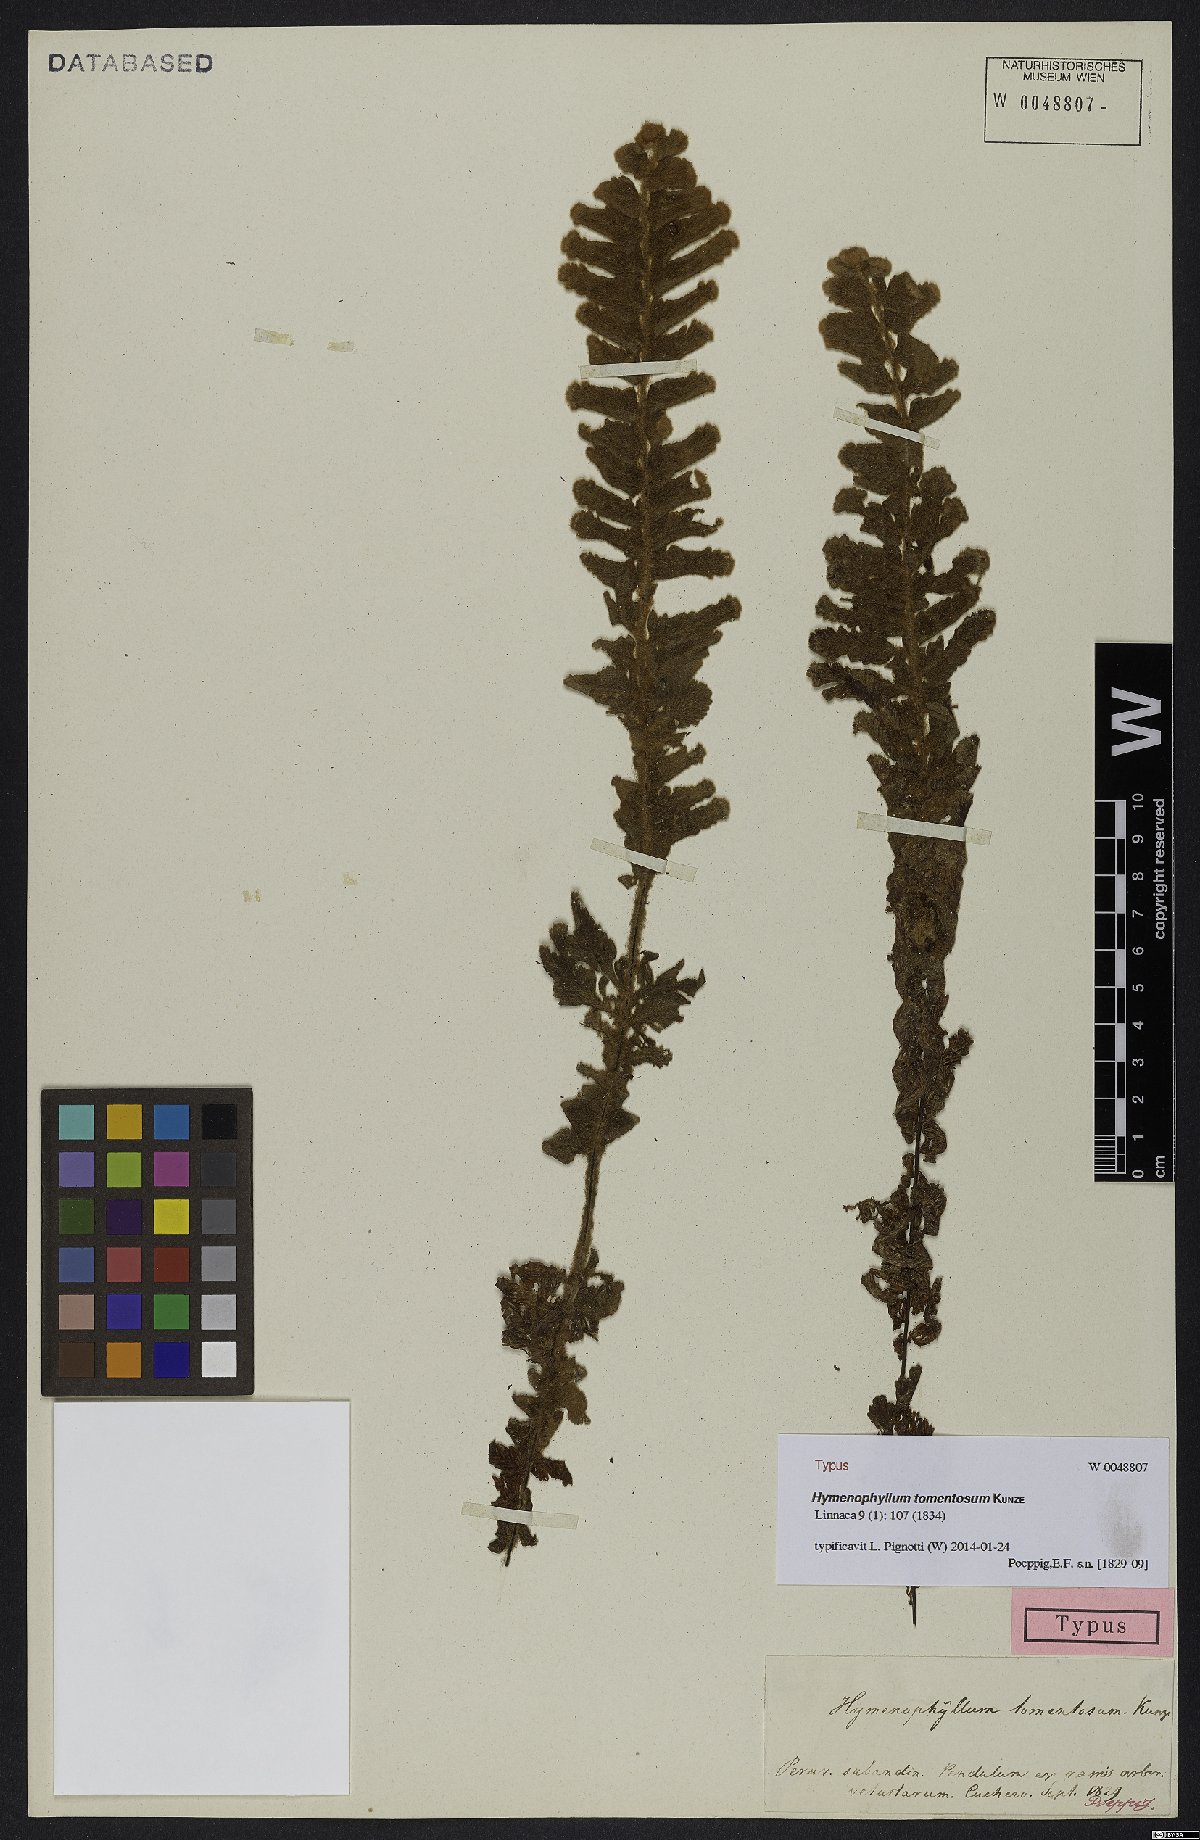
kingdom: Plantae
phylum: Tracheophyta
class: Polypodiopsida
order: Hymenophyllales
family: Hymenophyllaceae
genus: Hymenophyllum
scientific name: Hymenophyllum tomentosum
